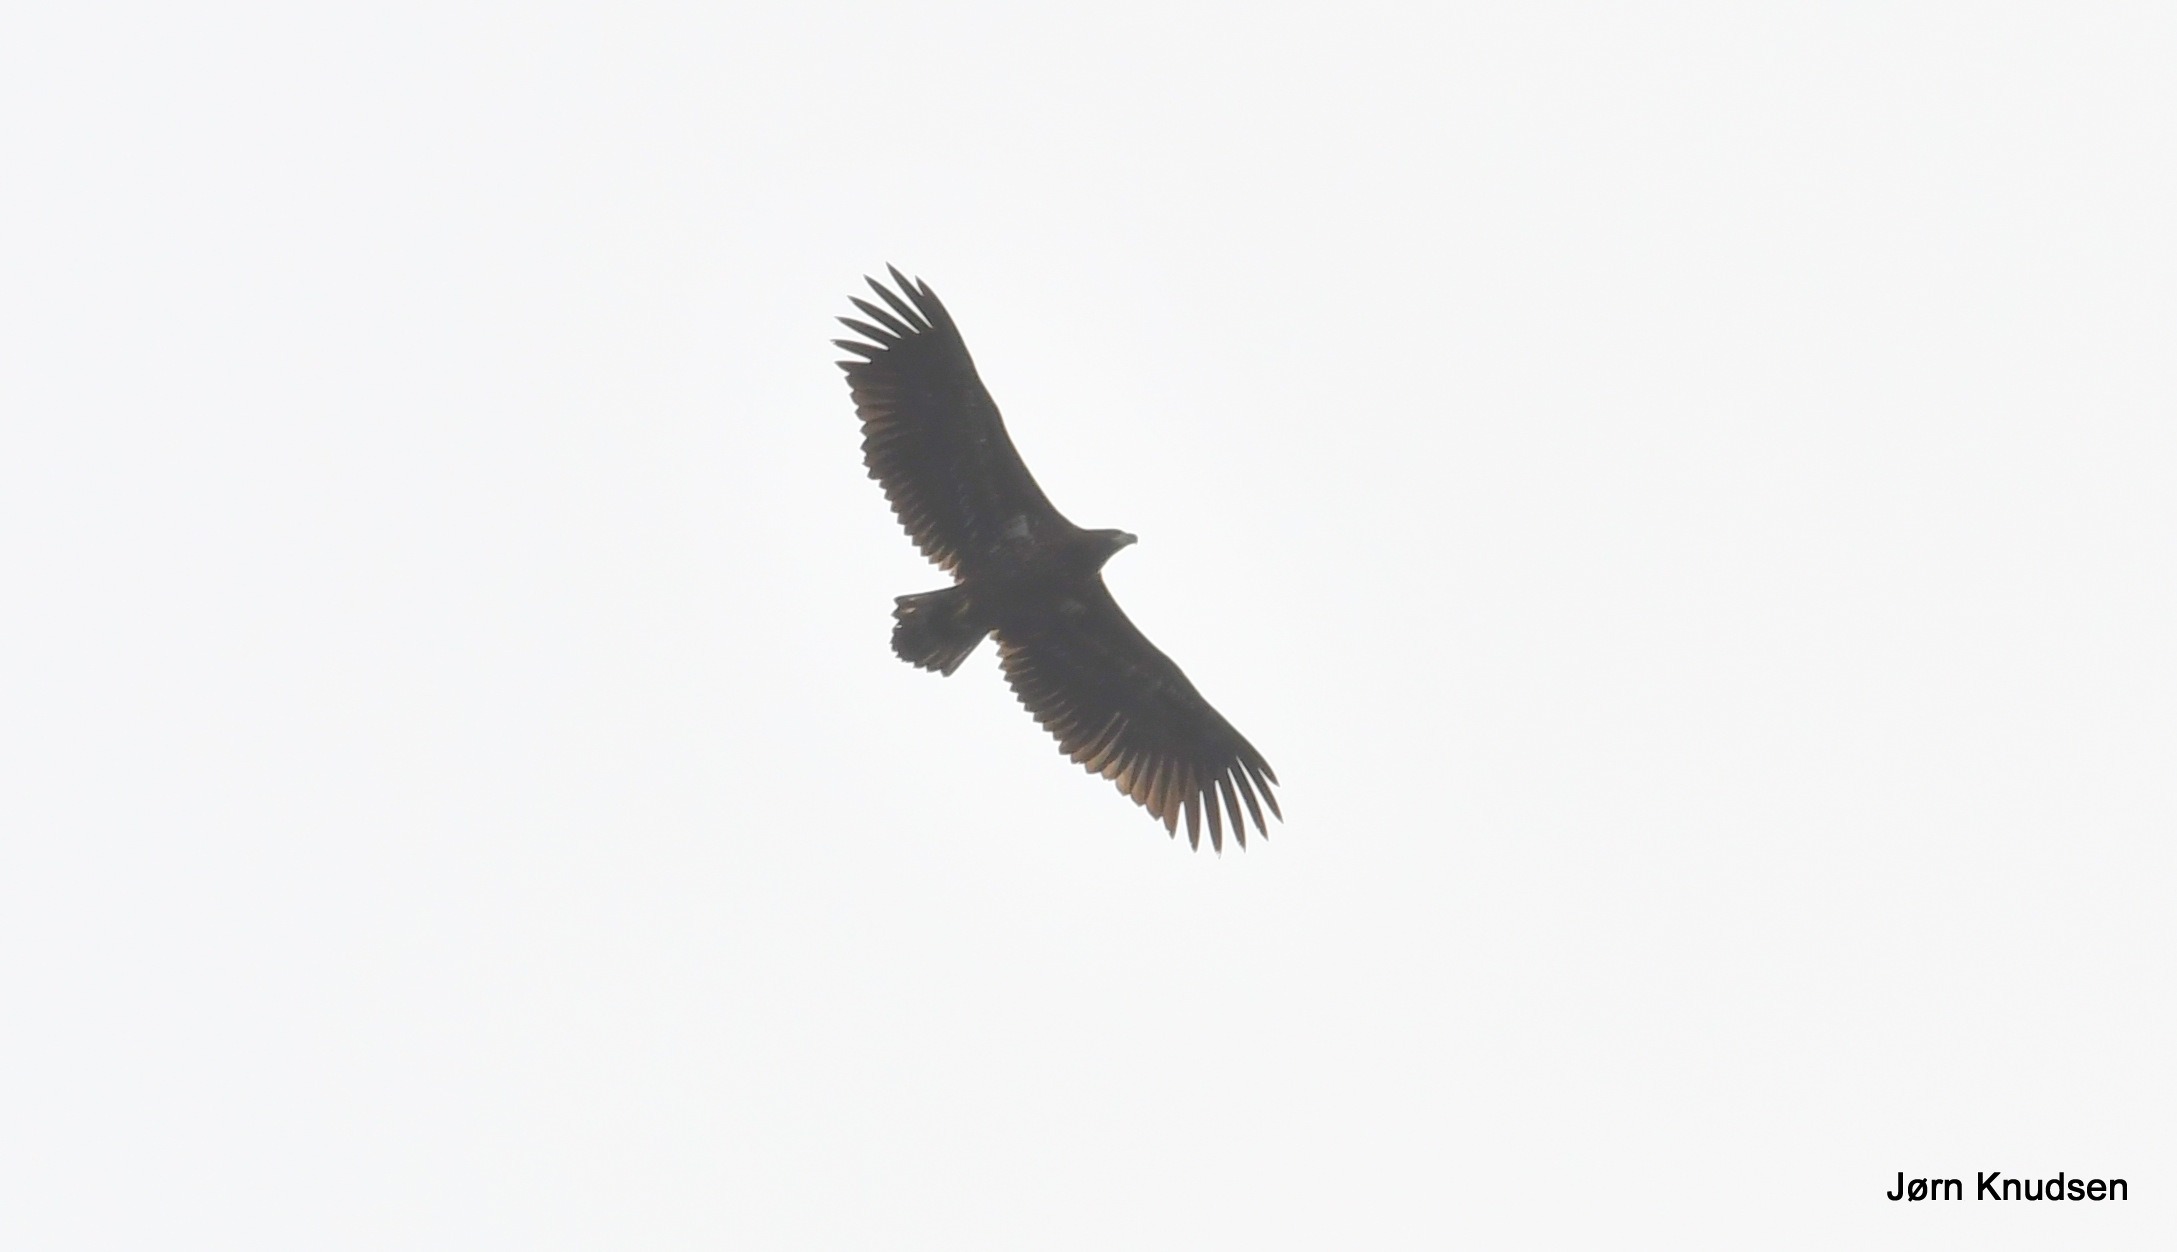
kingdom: Animalia
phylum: Chordata
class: Aves
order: Accipitriformes
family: Accipitridae
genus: Haliaeetus
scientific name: Haliaeetus albicilla
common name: Havørn
